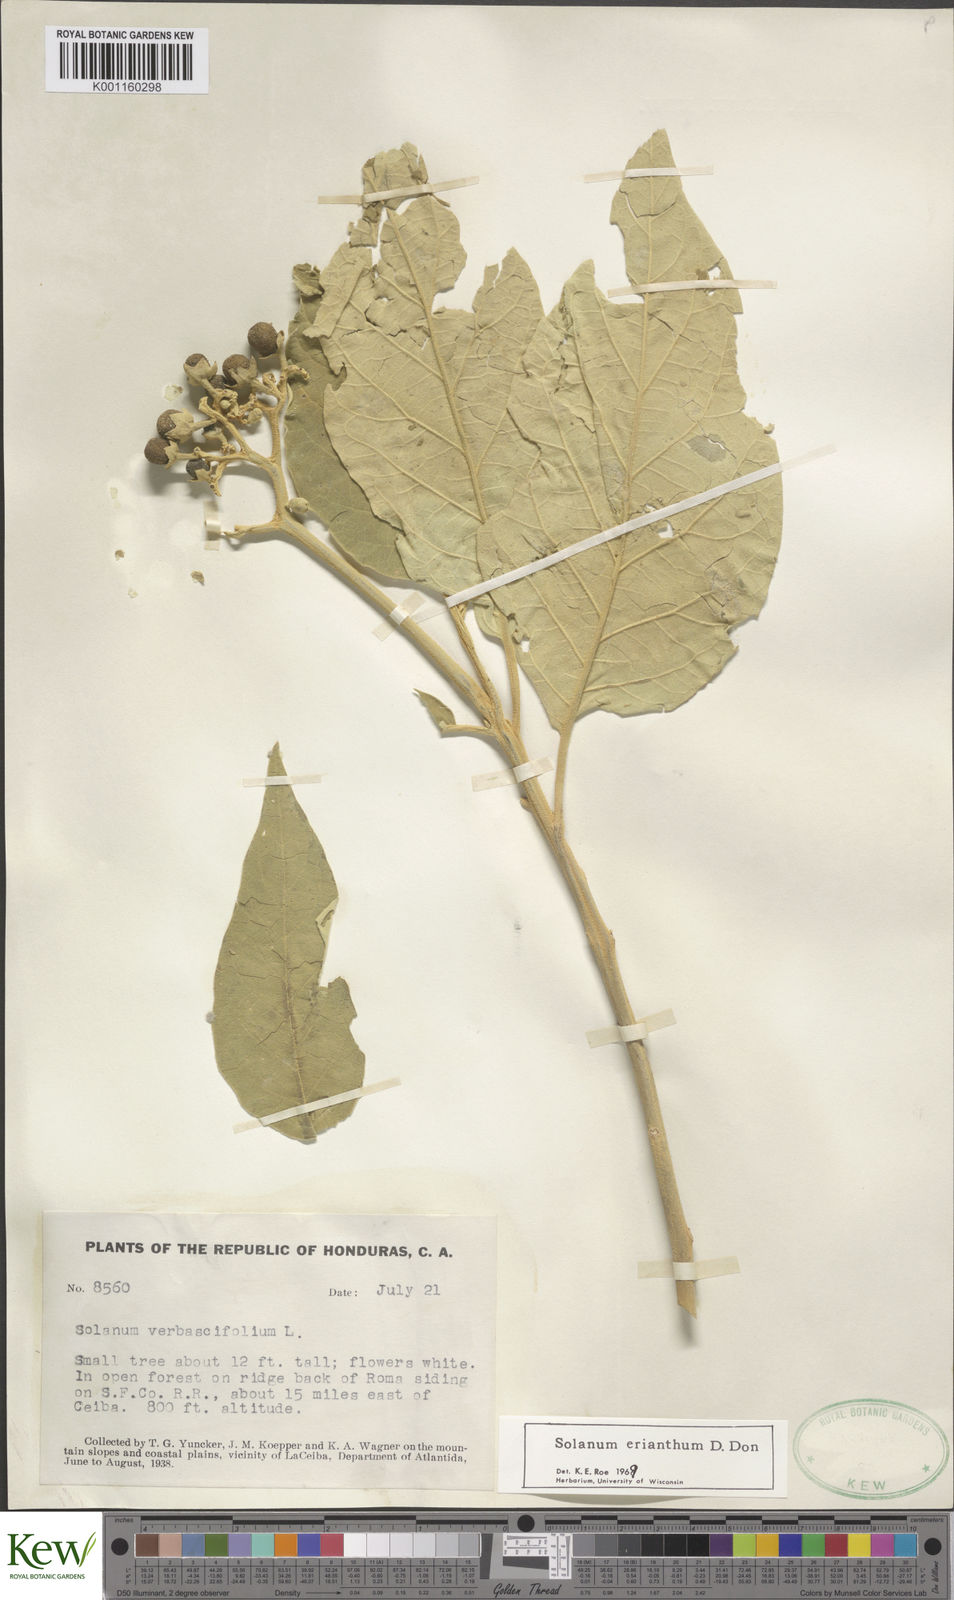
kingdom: Plantae
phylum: Tracheophyta
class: Magnoliopsida
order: Solanales
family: Solanaceae
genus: Solanum
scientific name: Solanum erianthum
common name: Tobacco-tree
